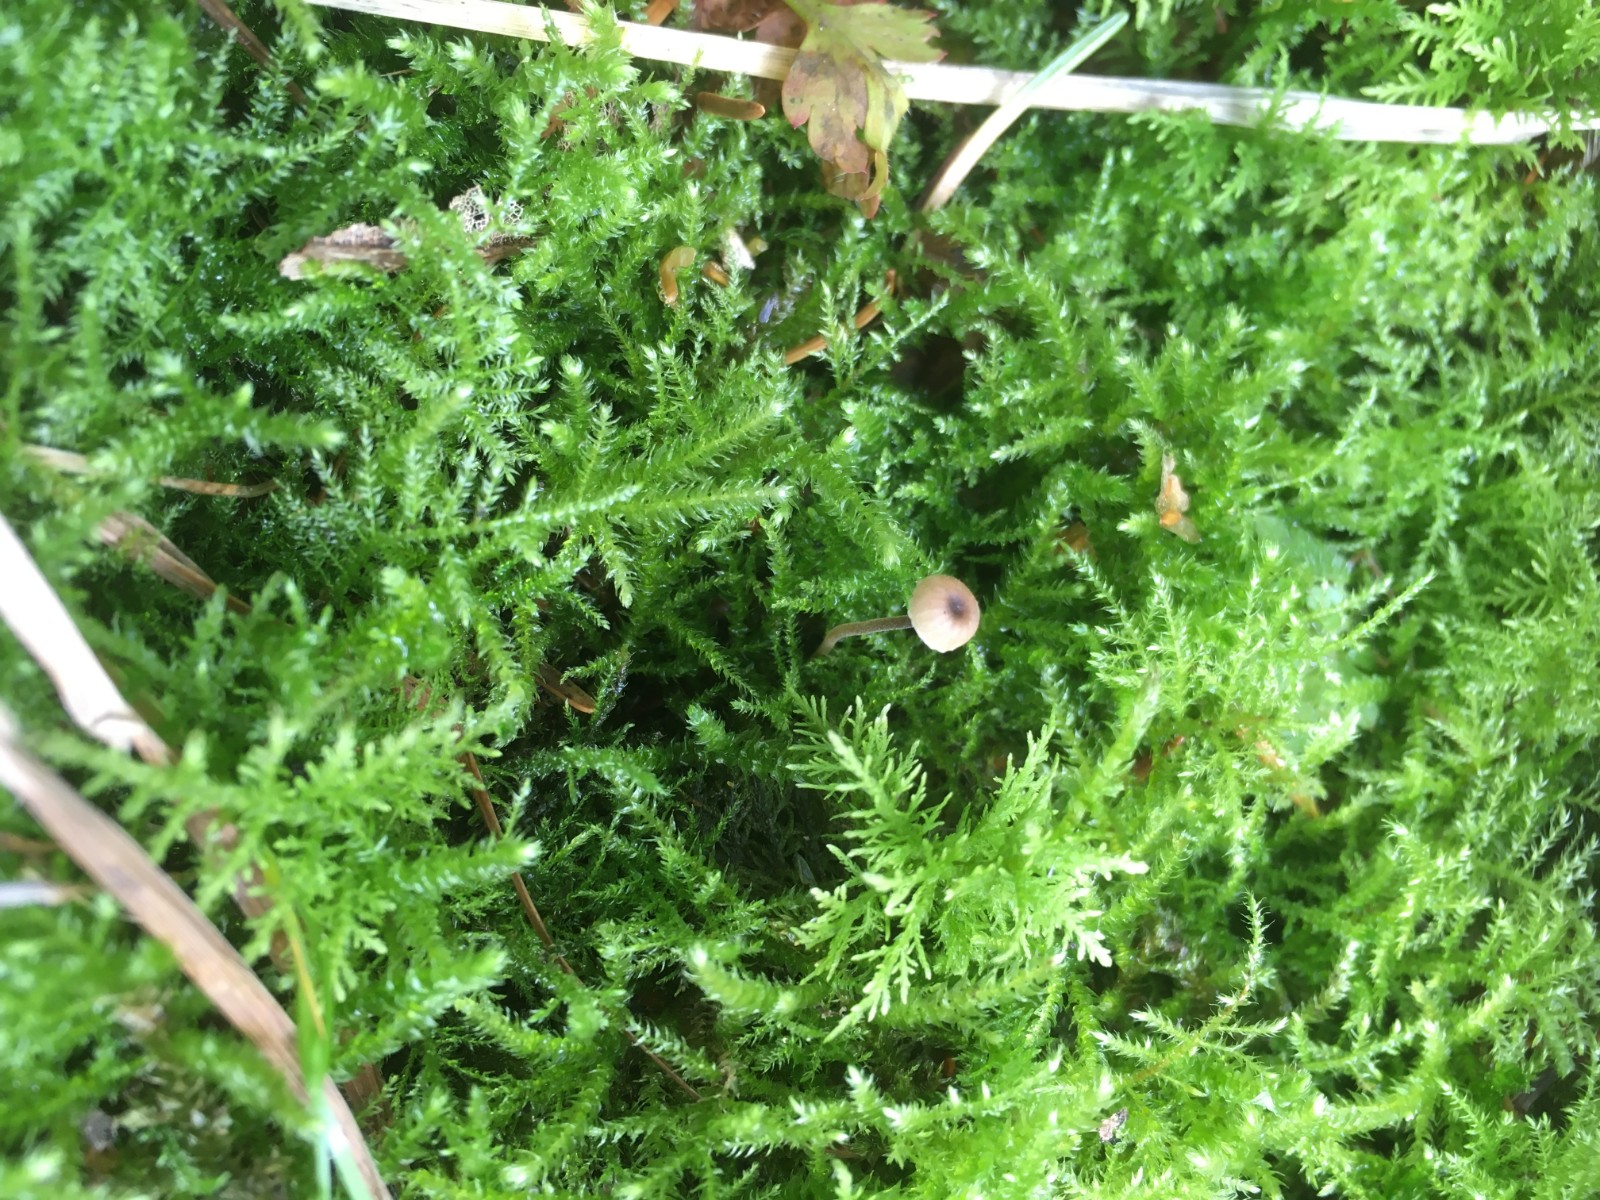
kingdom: Fungi
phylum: Basidiomycota
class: Agaricomycetes
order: Hymenochaetales
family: Rickenellaceae
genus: Rickenella
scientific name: Rickenella swartzii
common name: finstokket mosnavlehat
